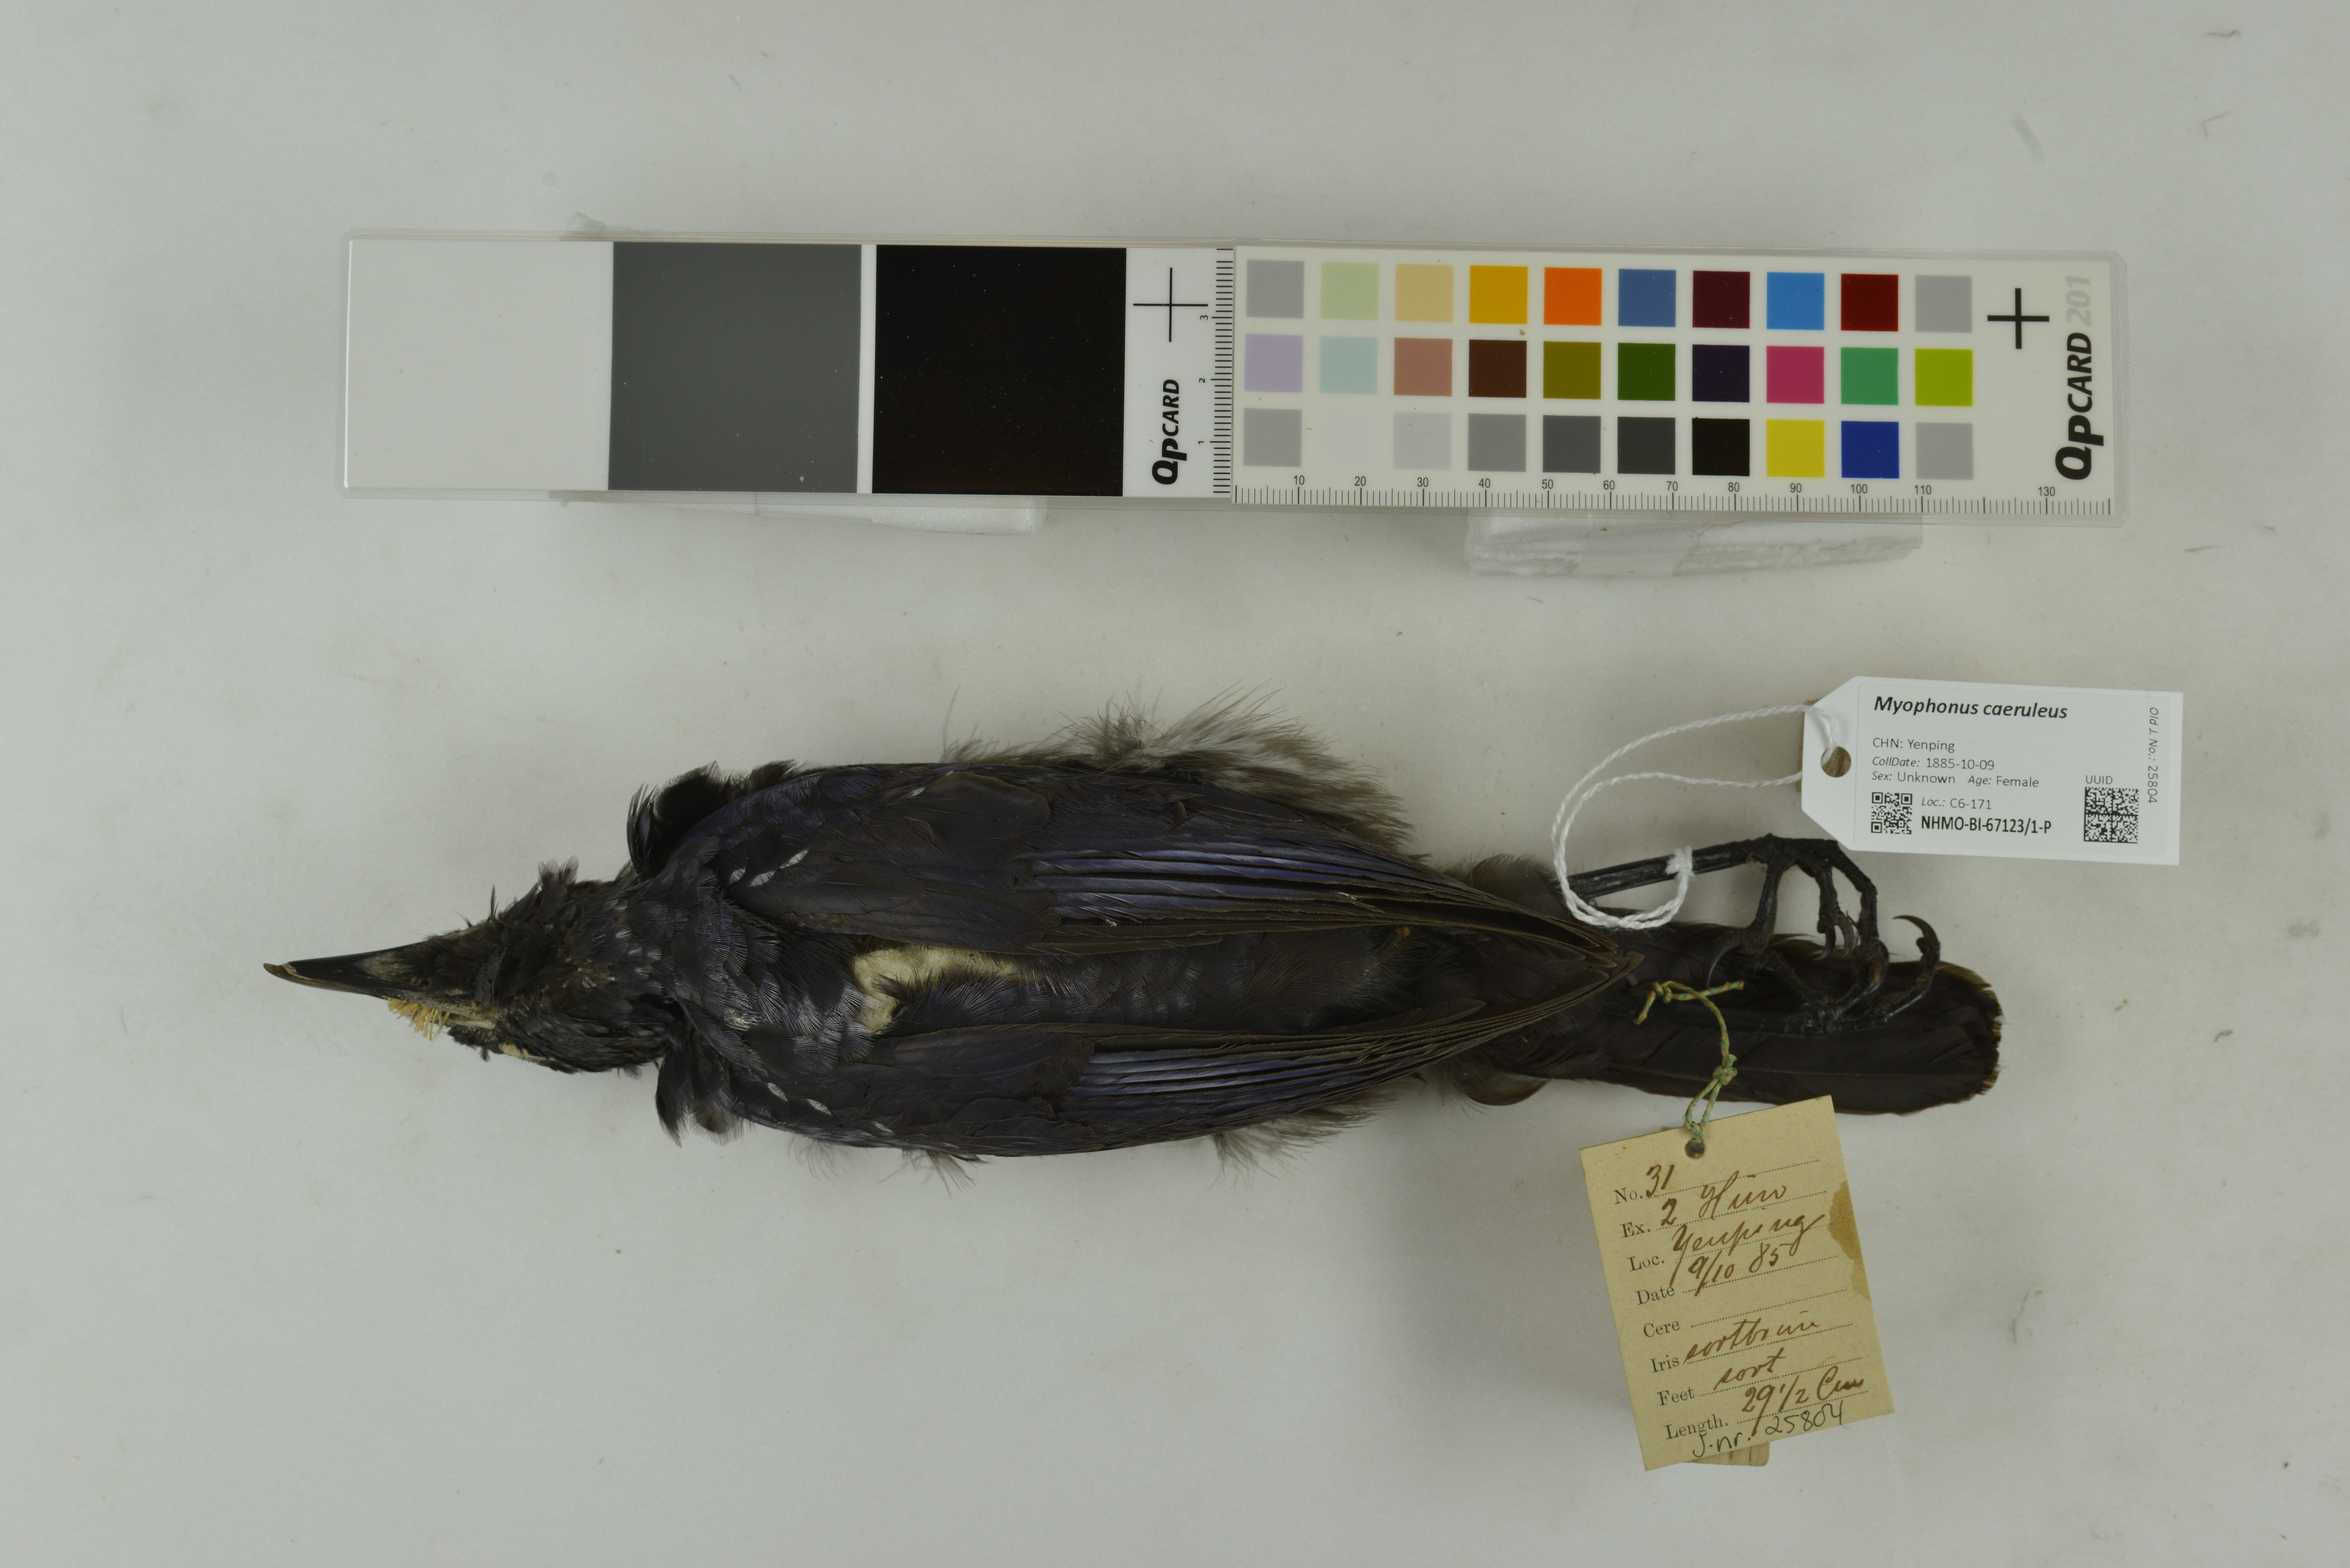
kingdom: Animalia
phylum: Chordata
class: Aves
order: Passeriformes
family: Muscicapidae
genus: Myophonus
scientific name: Myophonus caeruleus
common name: Blue whistling-thrush
